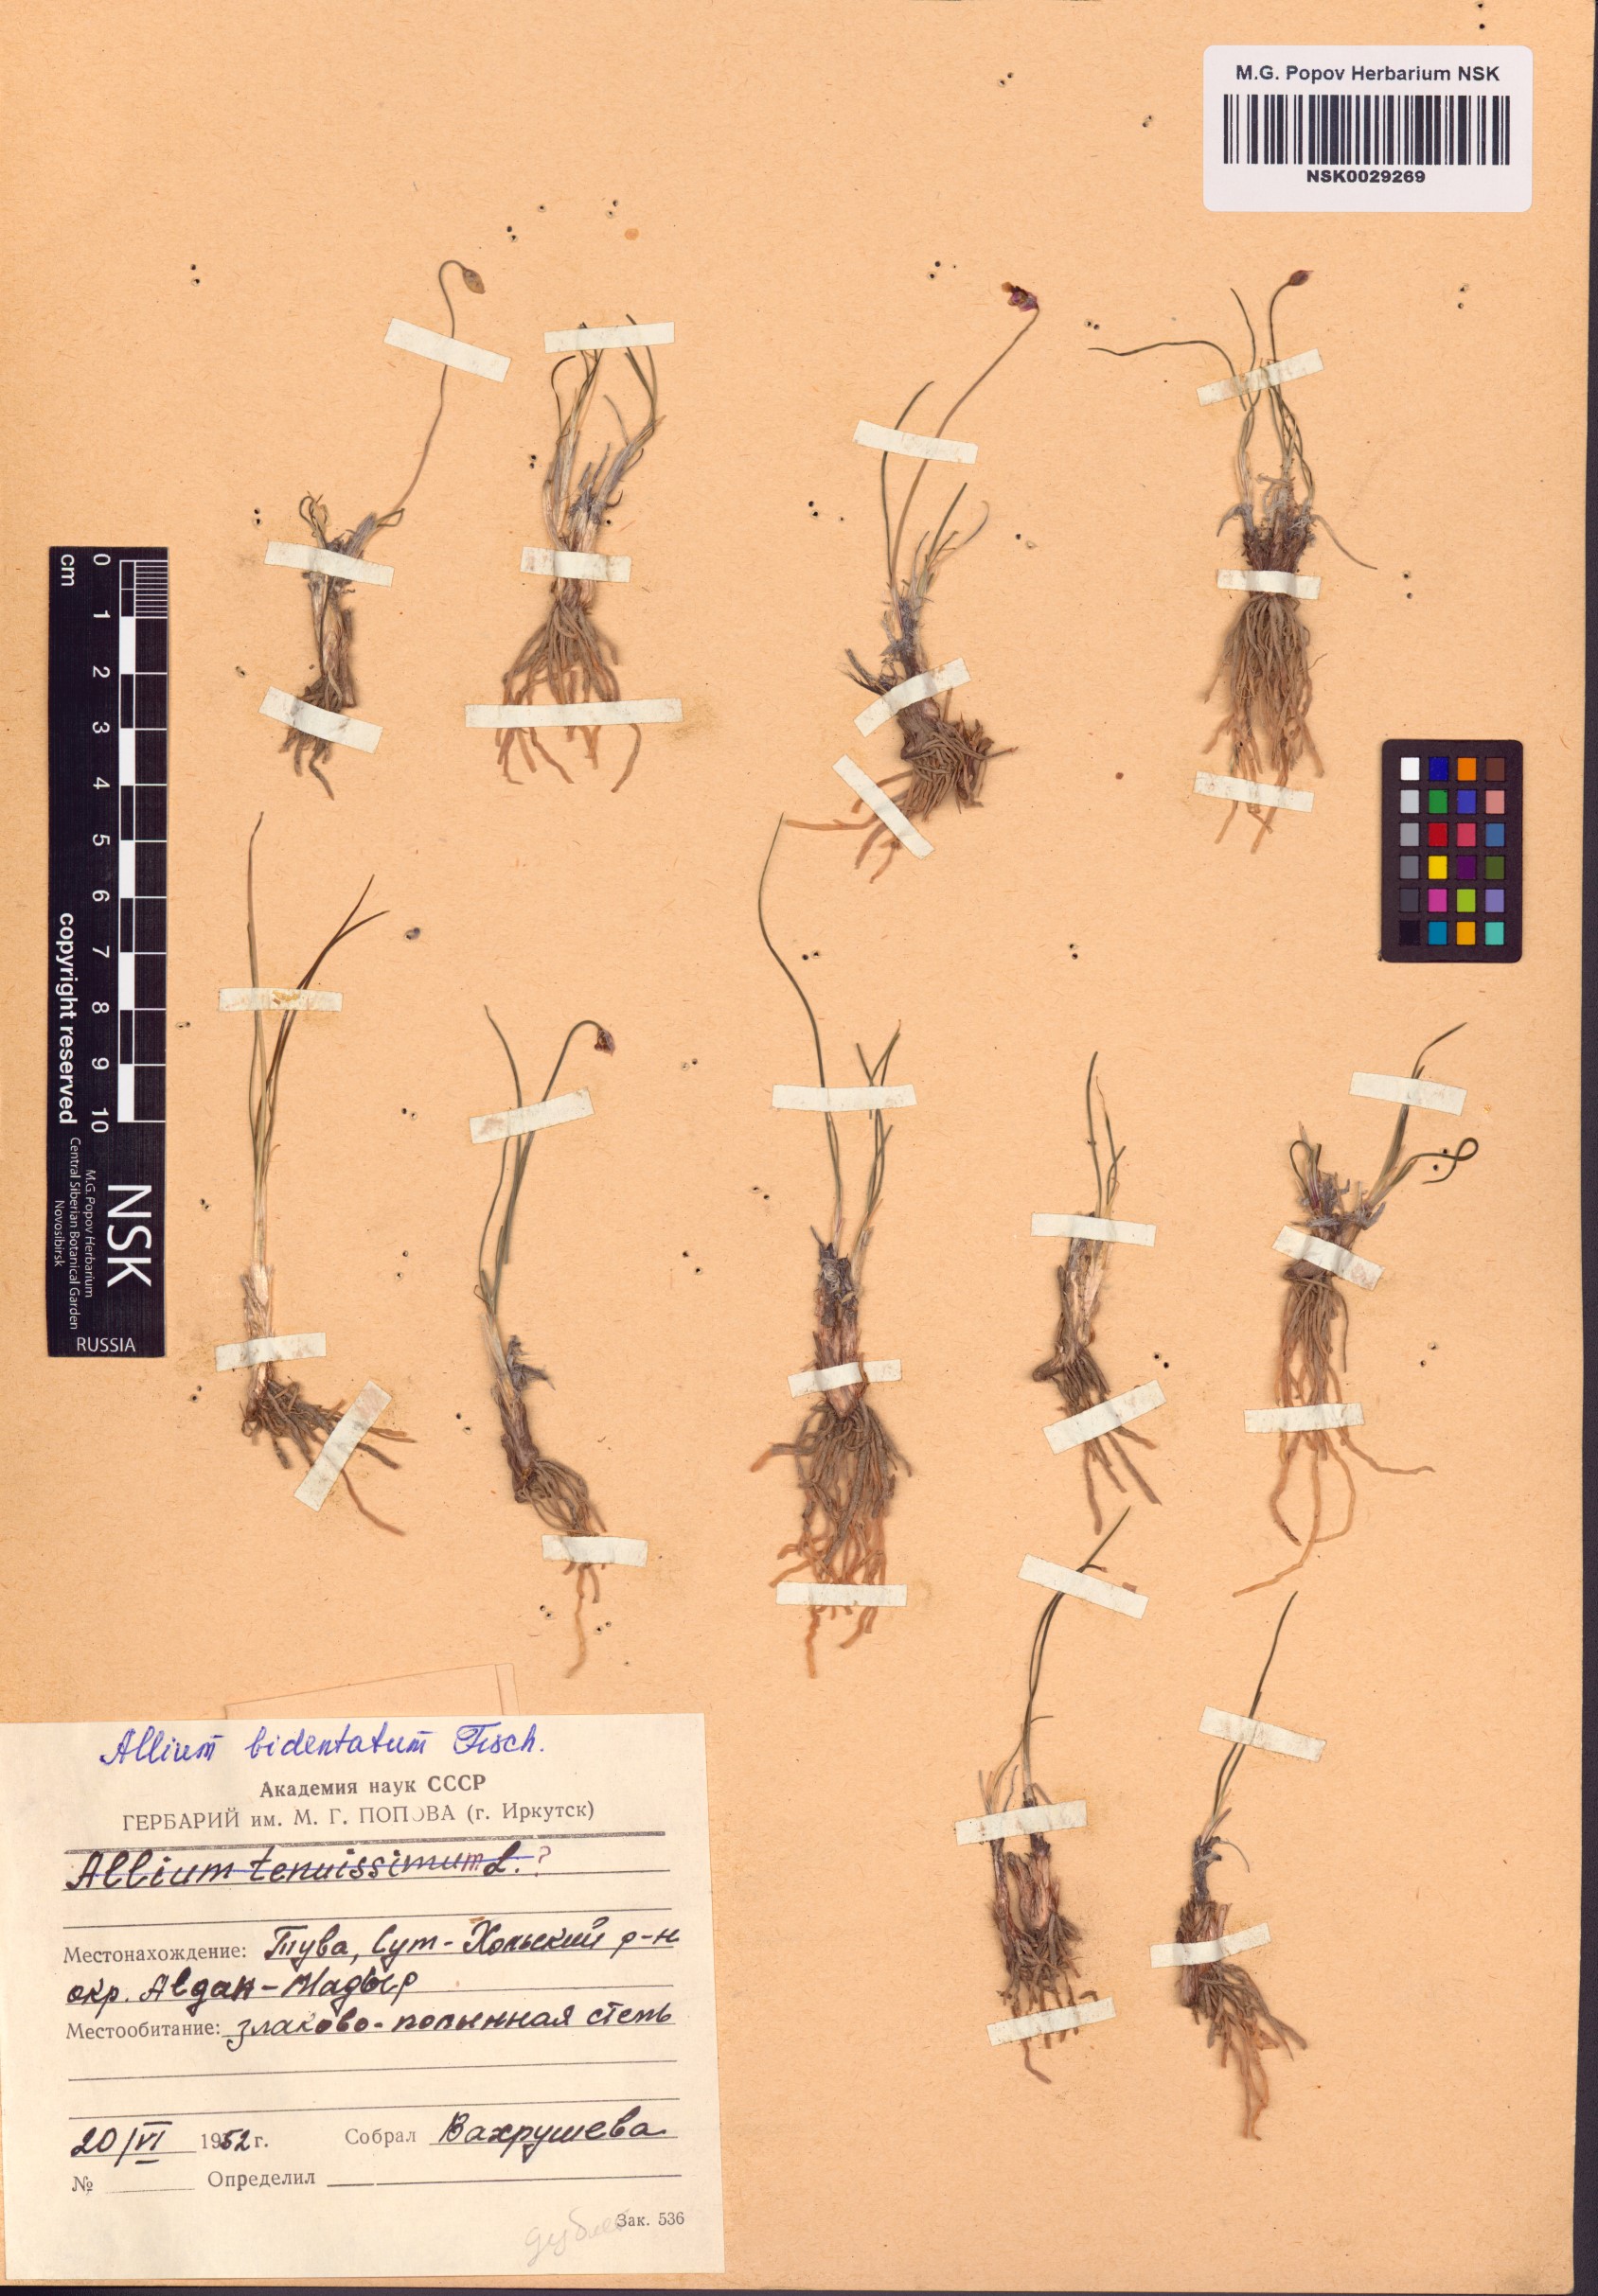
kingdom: Plantae
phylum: Tracheophyta
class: Liliopsida
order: Asparagales
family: Amaryllidaceae
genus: Allium
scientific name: Allium bidentatum
